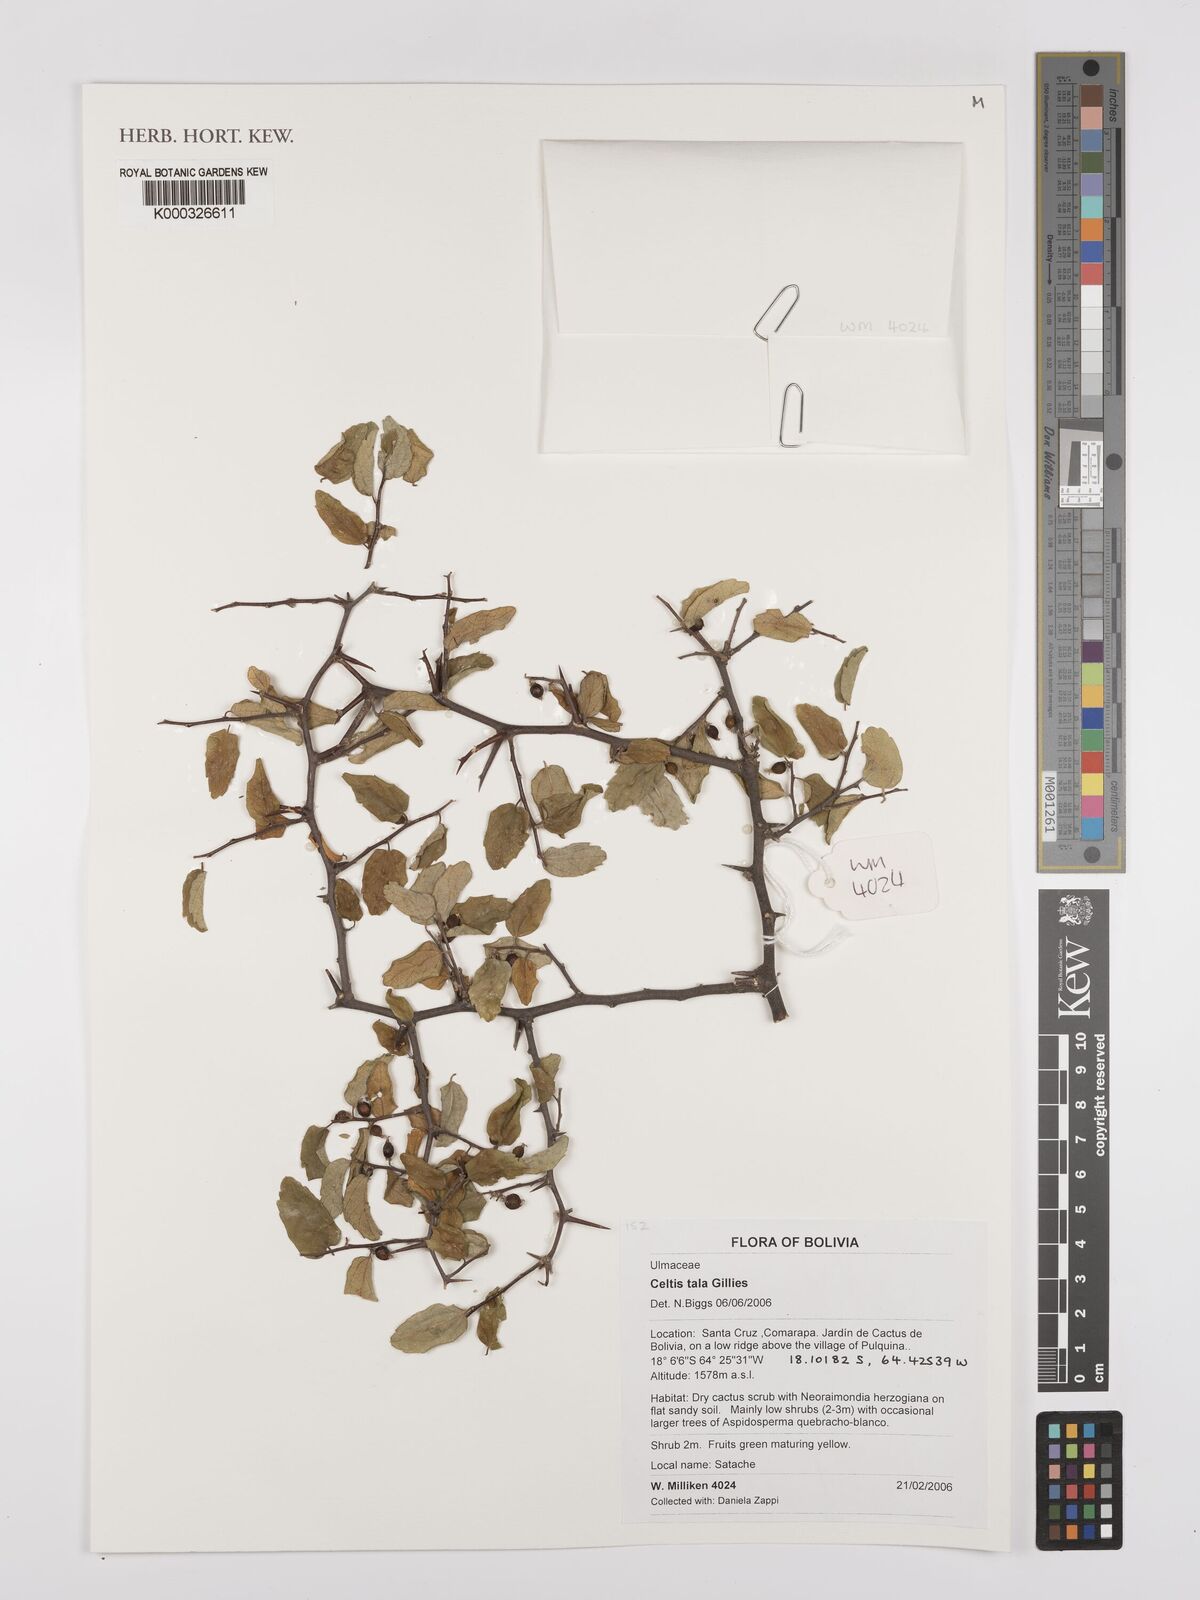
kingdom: Plantae
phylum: Tracheophyta
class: Magnoliopsida
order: Rosales
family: Cannabaceae
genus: Celtis
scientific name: Celtis tala
